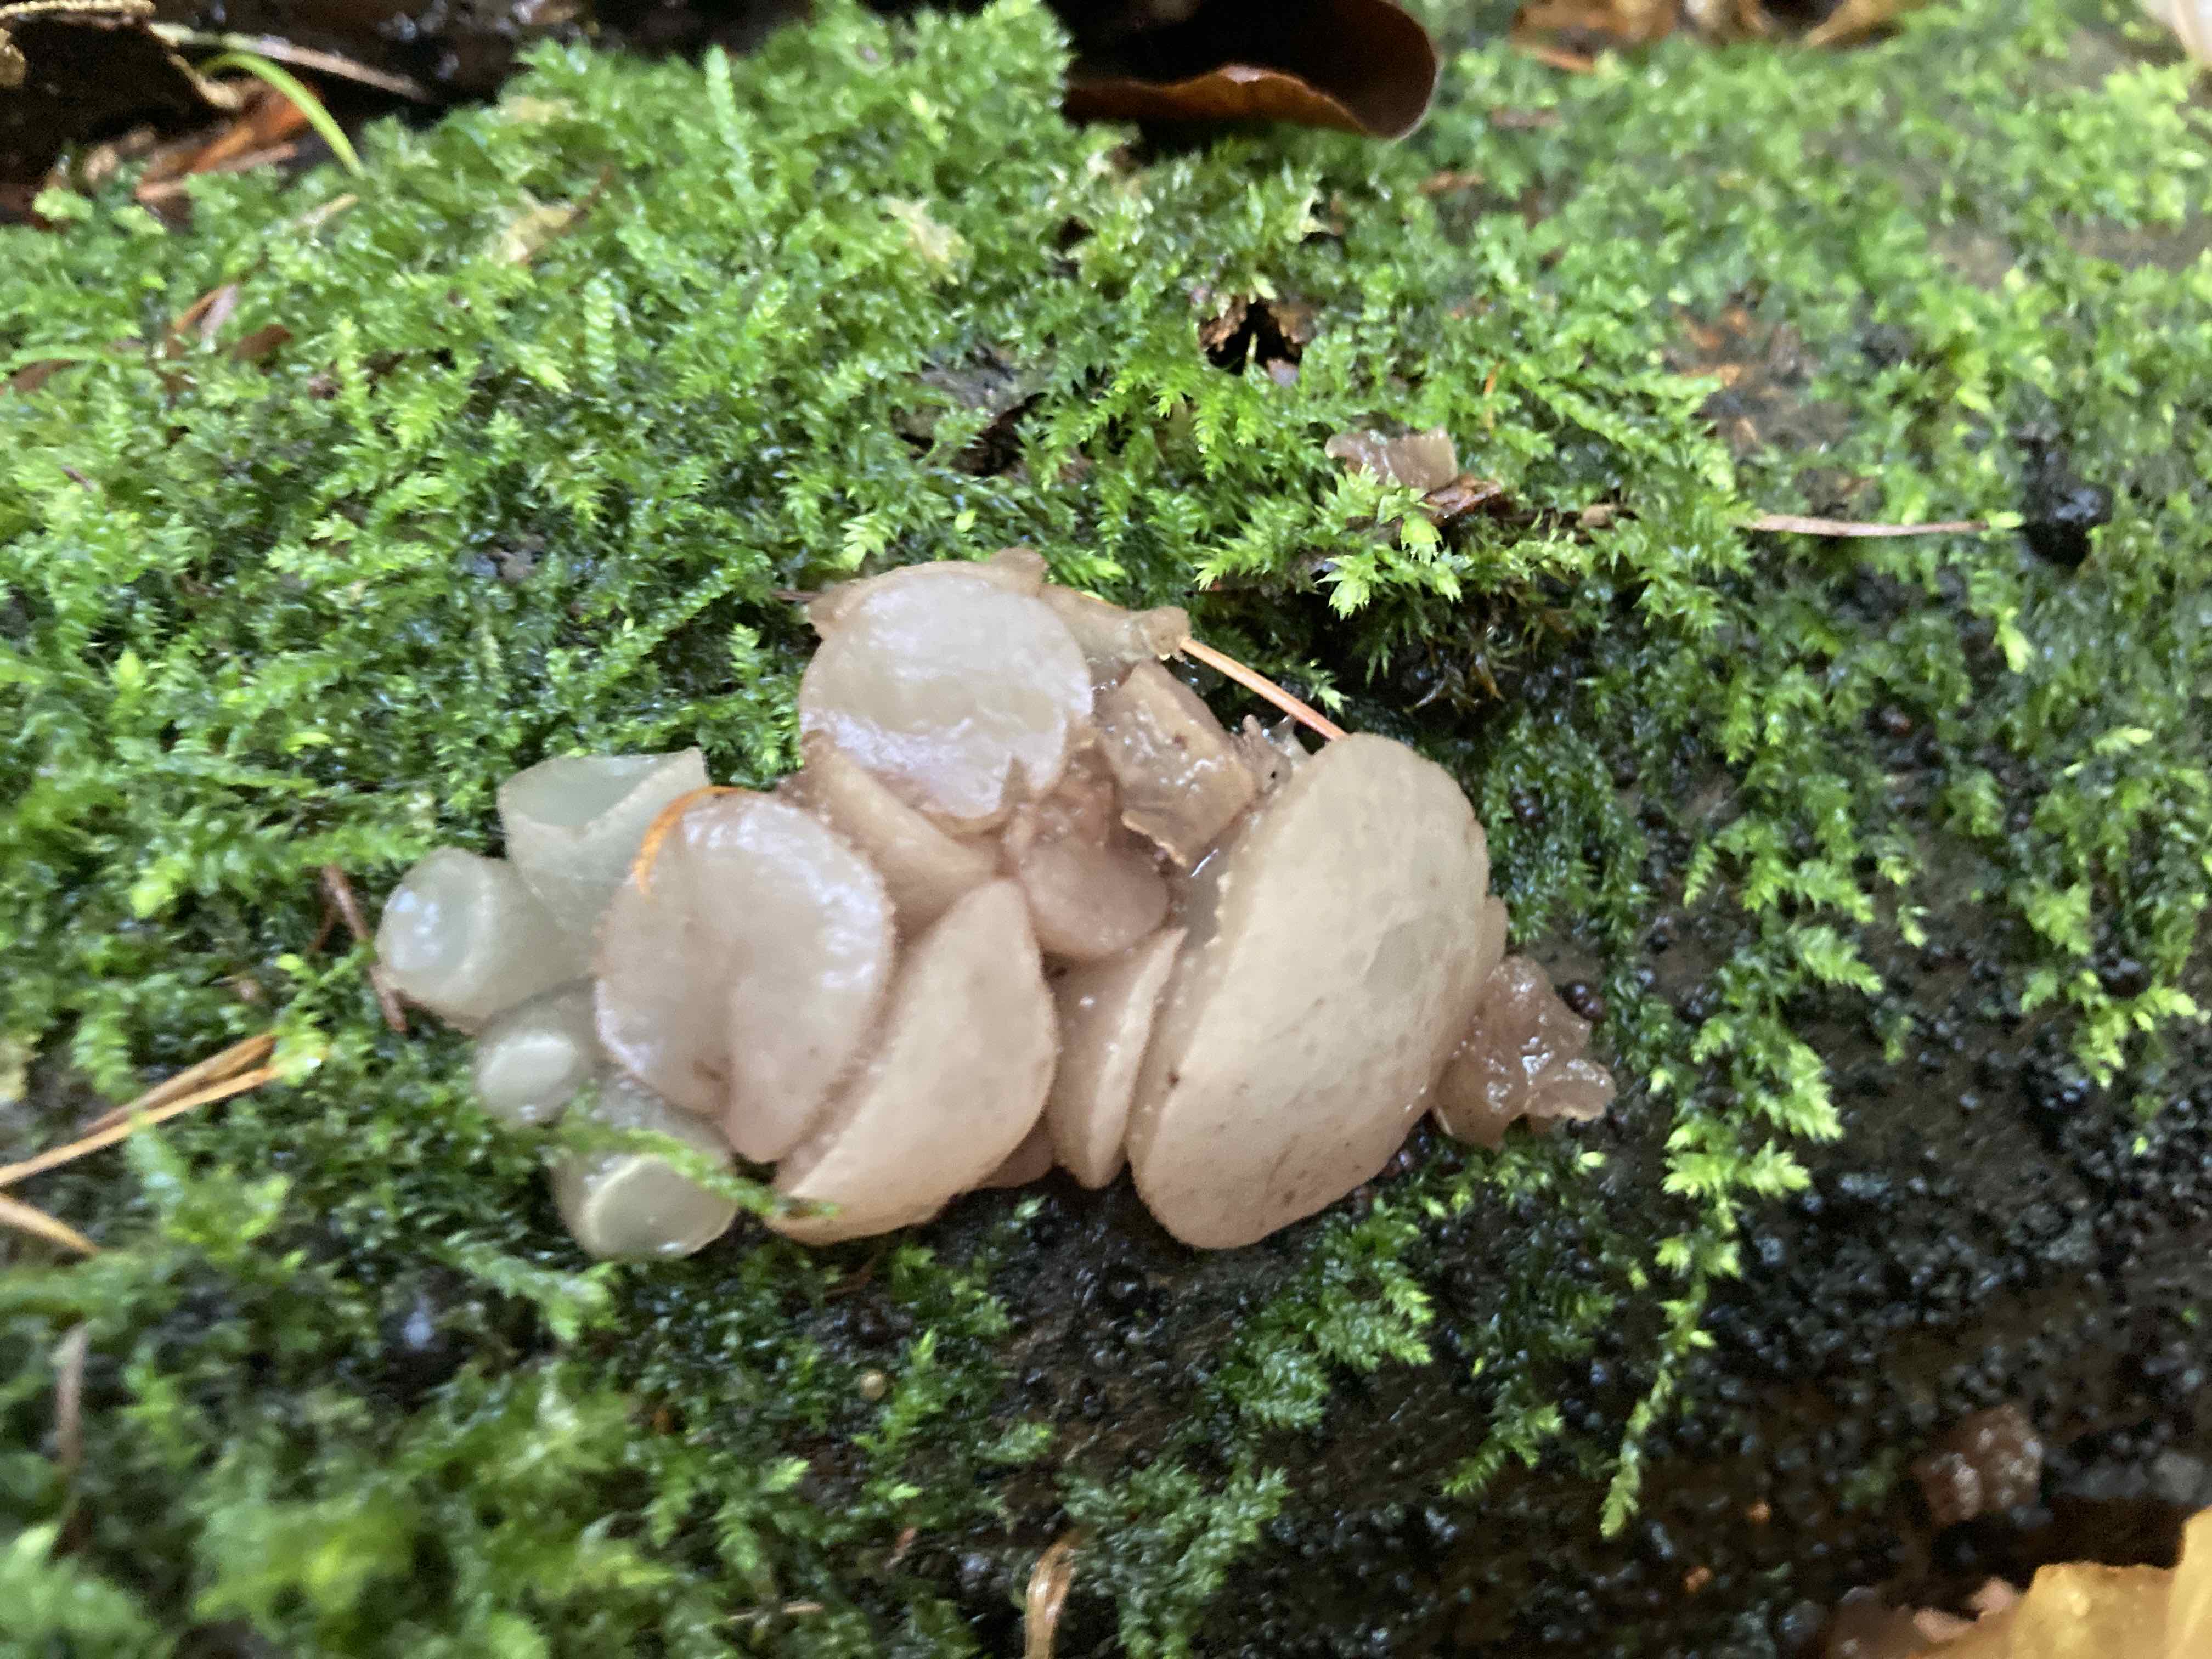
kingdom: Fungi
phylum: Ascomycota
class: Leotiomycetes
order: Helotiales
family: Gelatinodiscaceae
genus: Neobulgaria
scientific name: Neobulgaria pura
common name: bleg bævreskive
